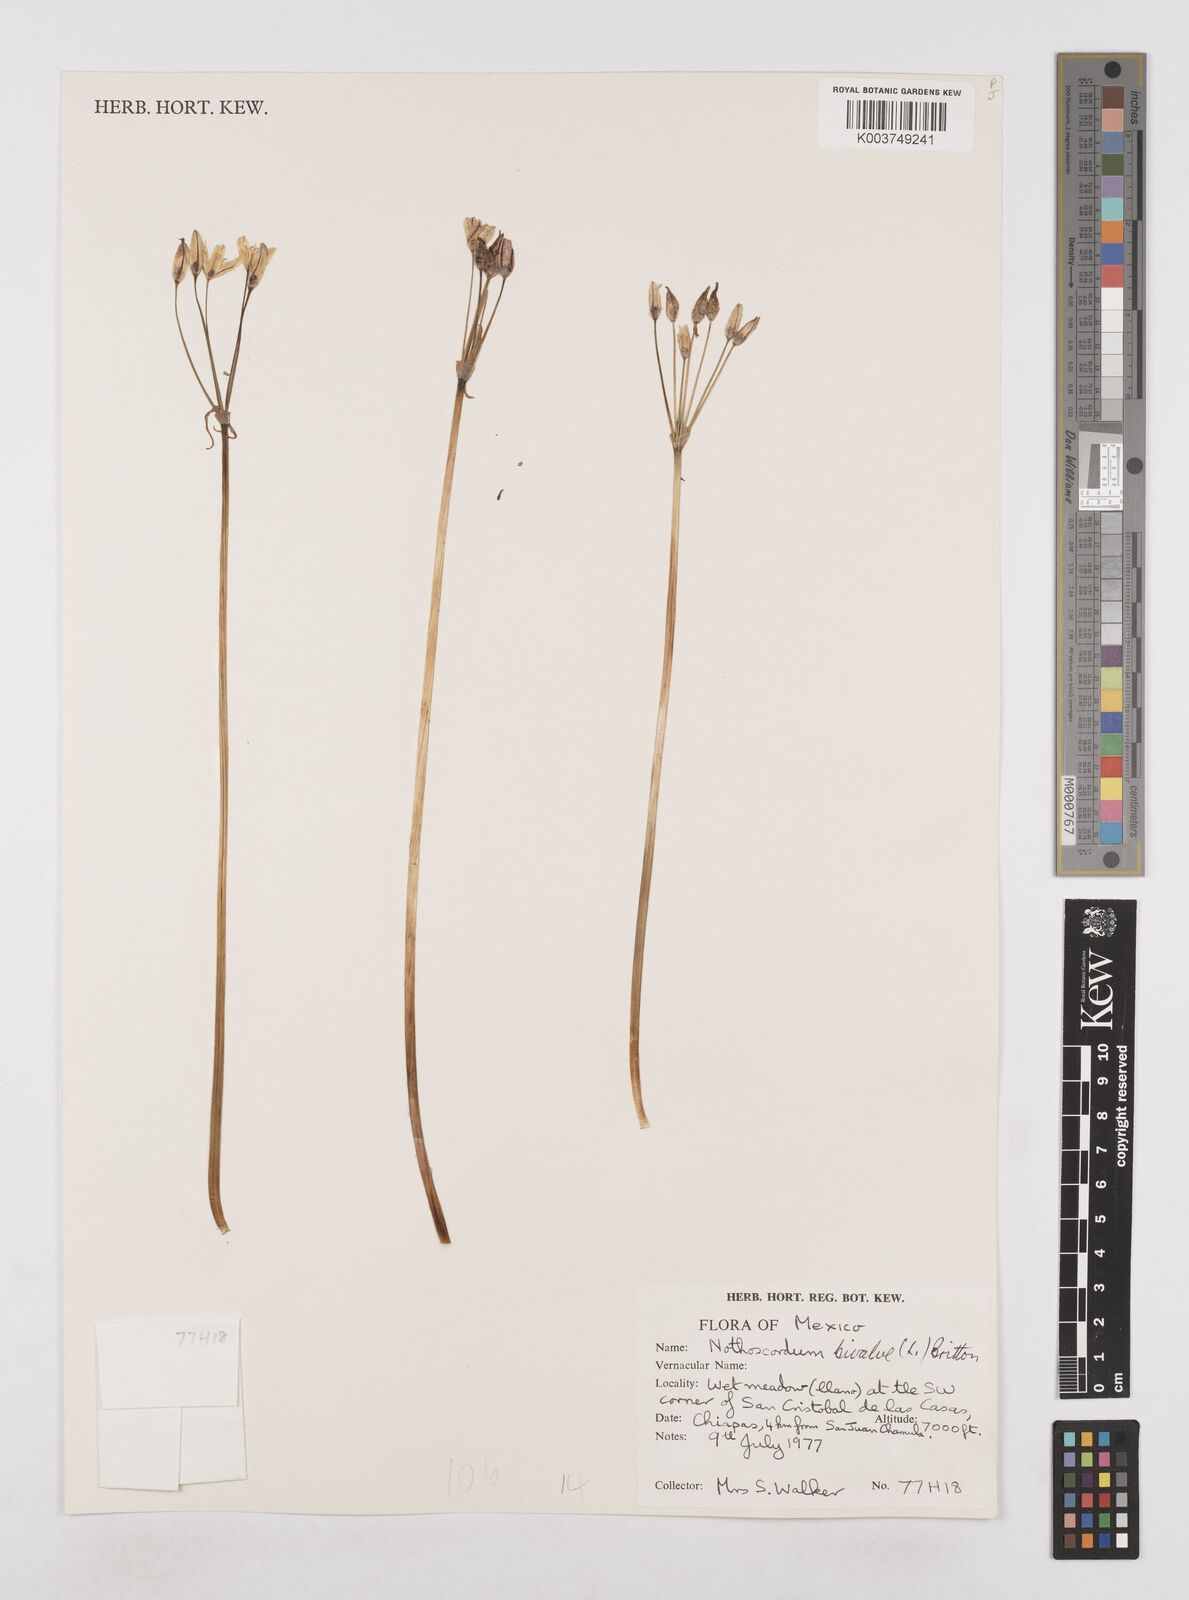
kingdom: Plantae
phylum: Tracheophyta
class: Liliopsida
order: Asparagales
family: Amaryllidaceae
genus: Nothoscordum
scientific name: Nothoscordum bivalve
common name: Crow-poison
